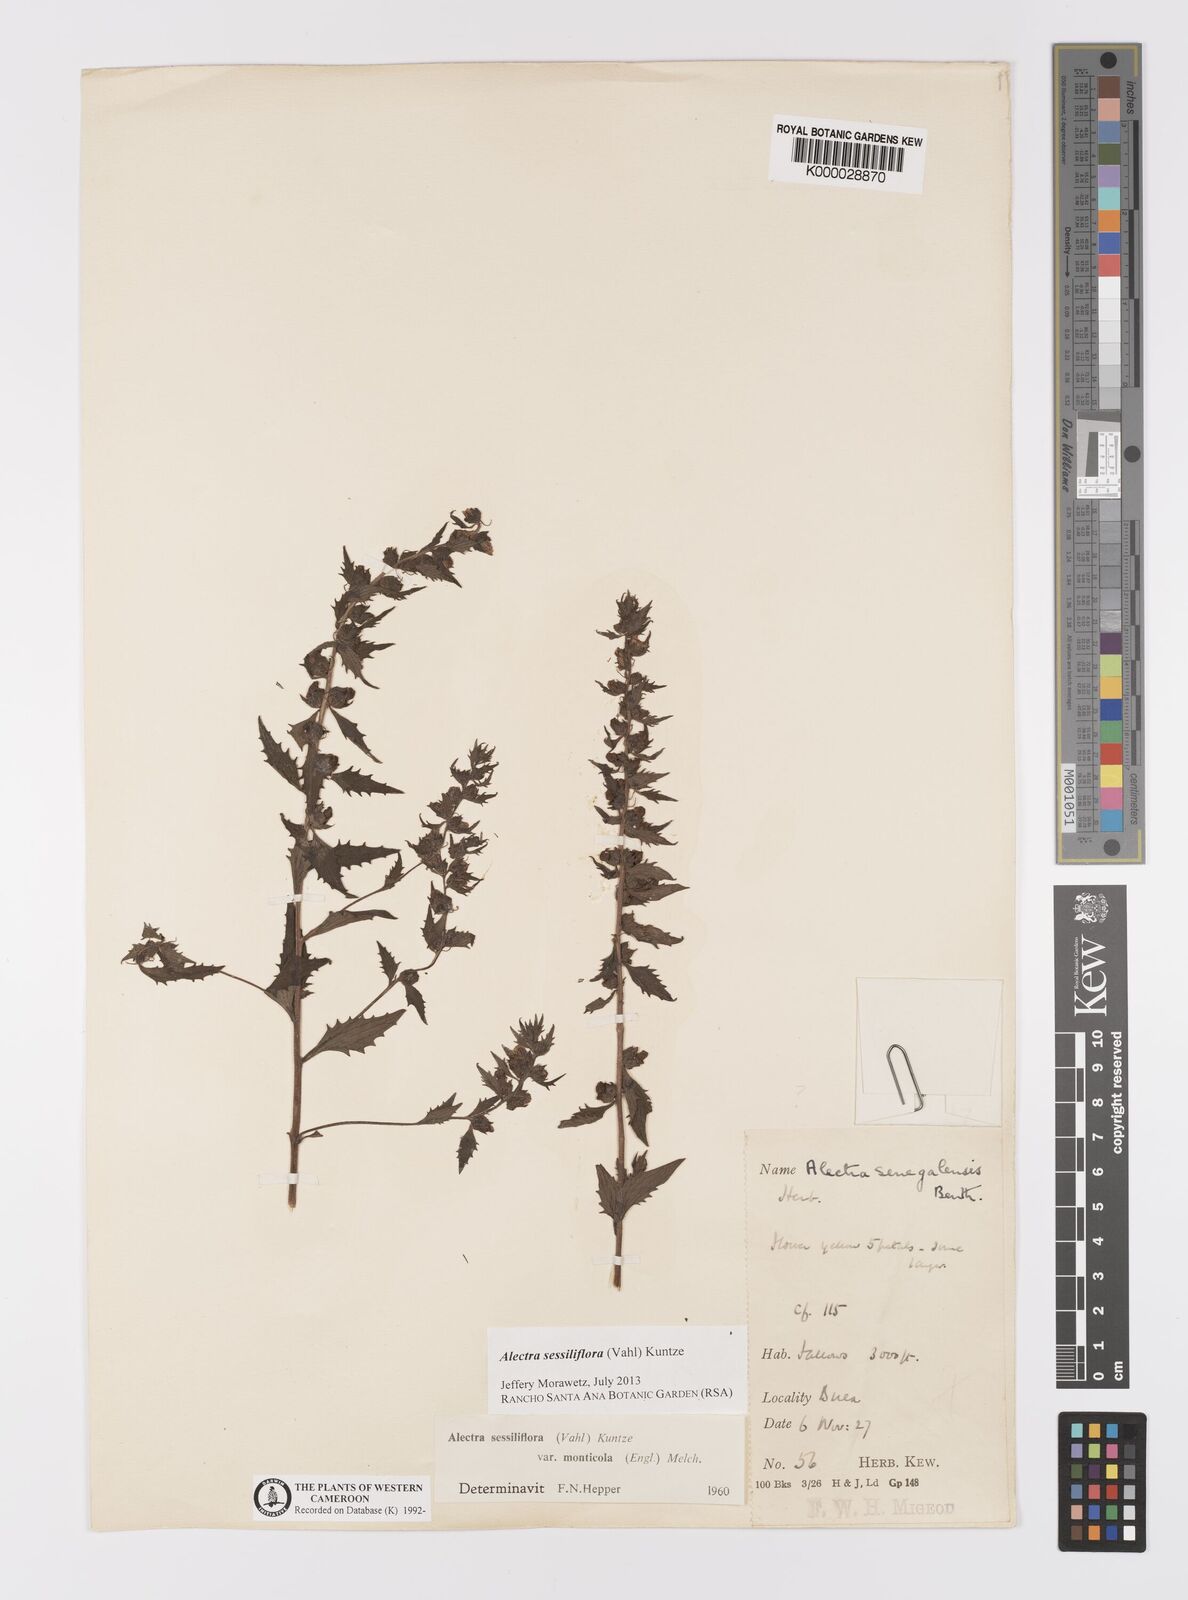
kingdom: Plantae
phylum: Tracheophyta
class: Magnoliopsida
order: Lamiales
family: Orobanchaceae
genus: Alectra
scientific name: Alectra sessiliflora
